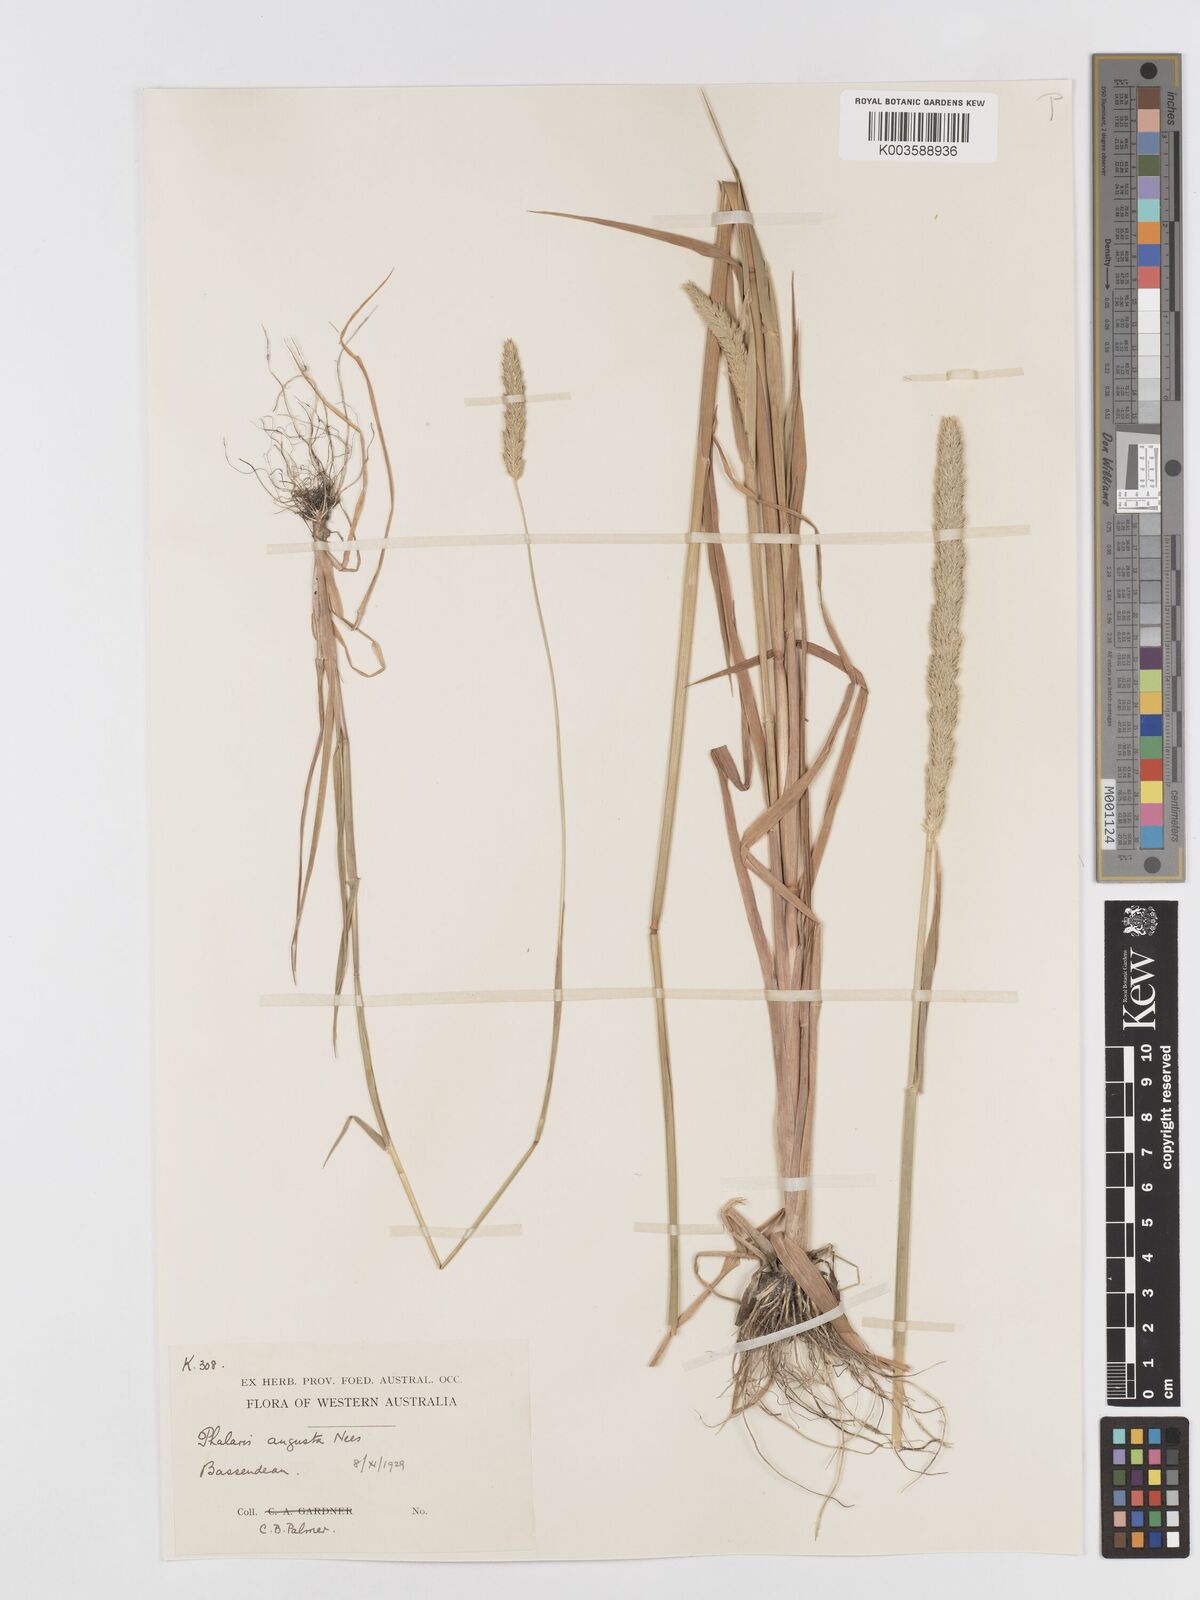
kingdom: Plantae
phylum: Tracheophyta
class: Liliopsida
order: Poales
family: Poaceae
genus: Phalaris
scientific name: Phalaris
